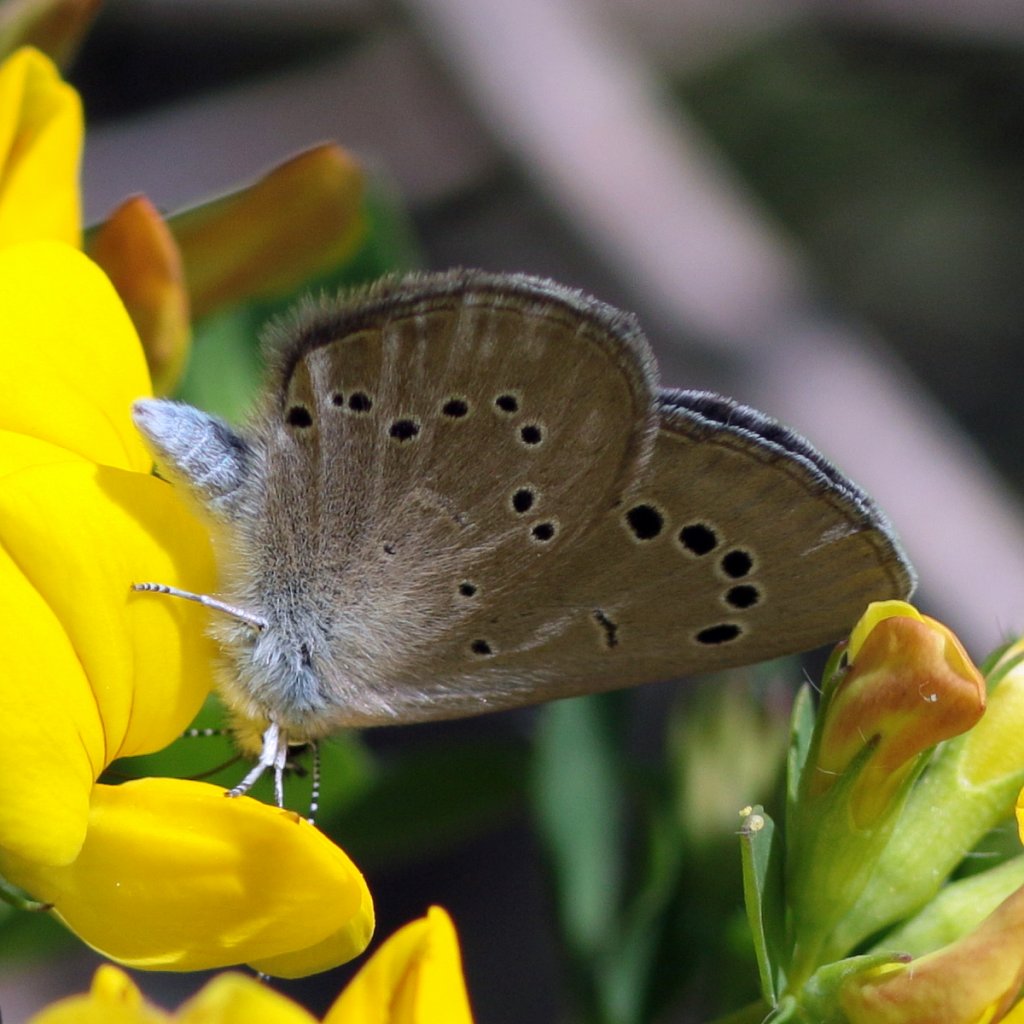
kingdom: Animalia
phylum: Arthropoda
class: Insecta
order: Lepidoptera
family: Lycaenidae
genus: Glaucopsyche
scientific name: Glaucopsyche lygdamus
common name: Silvery Blue
